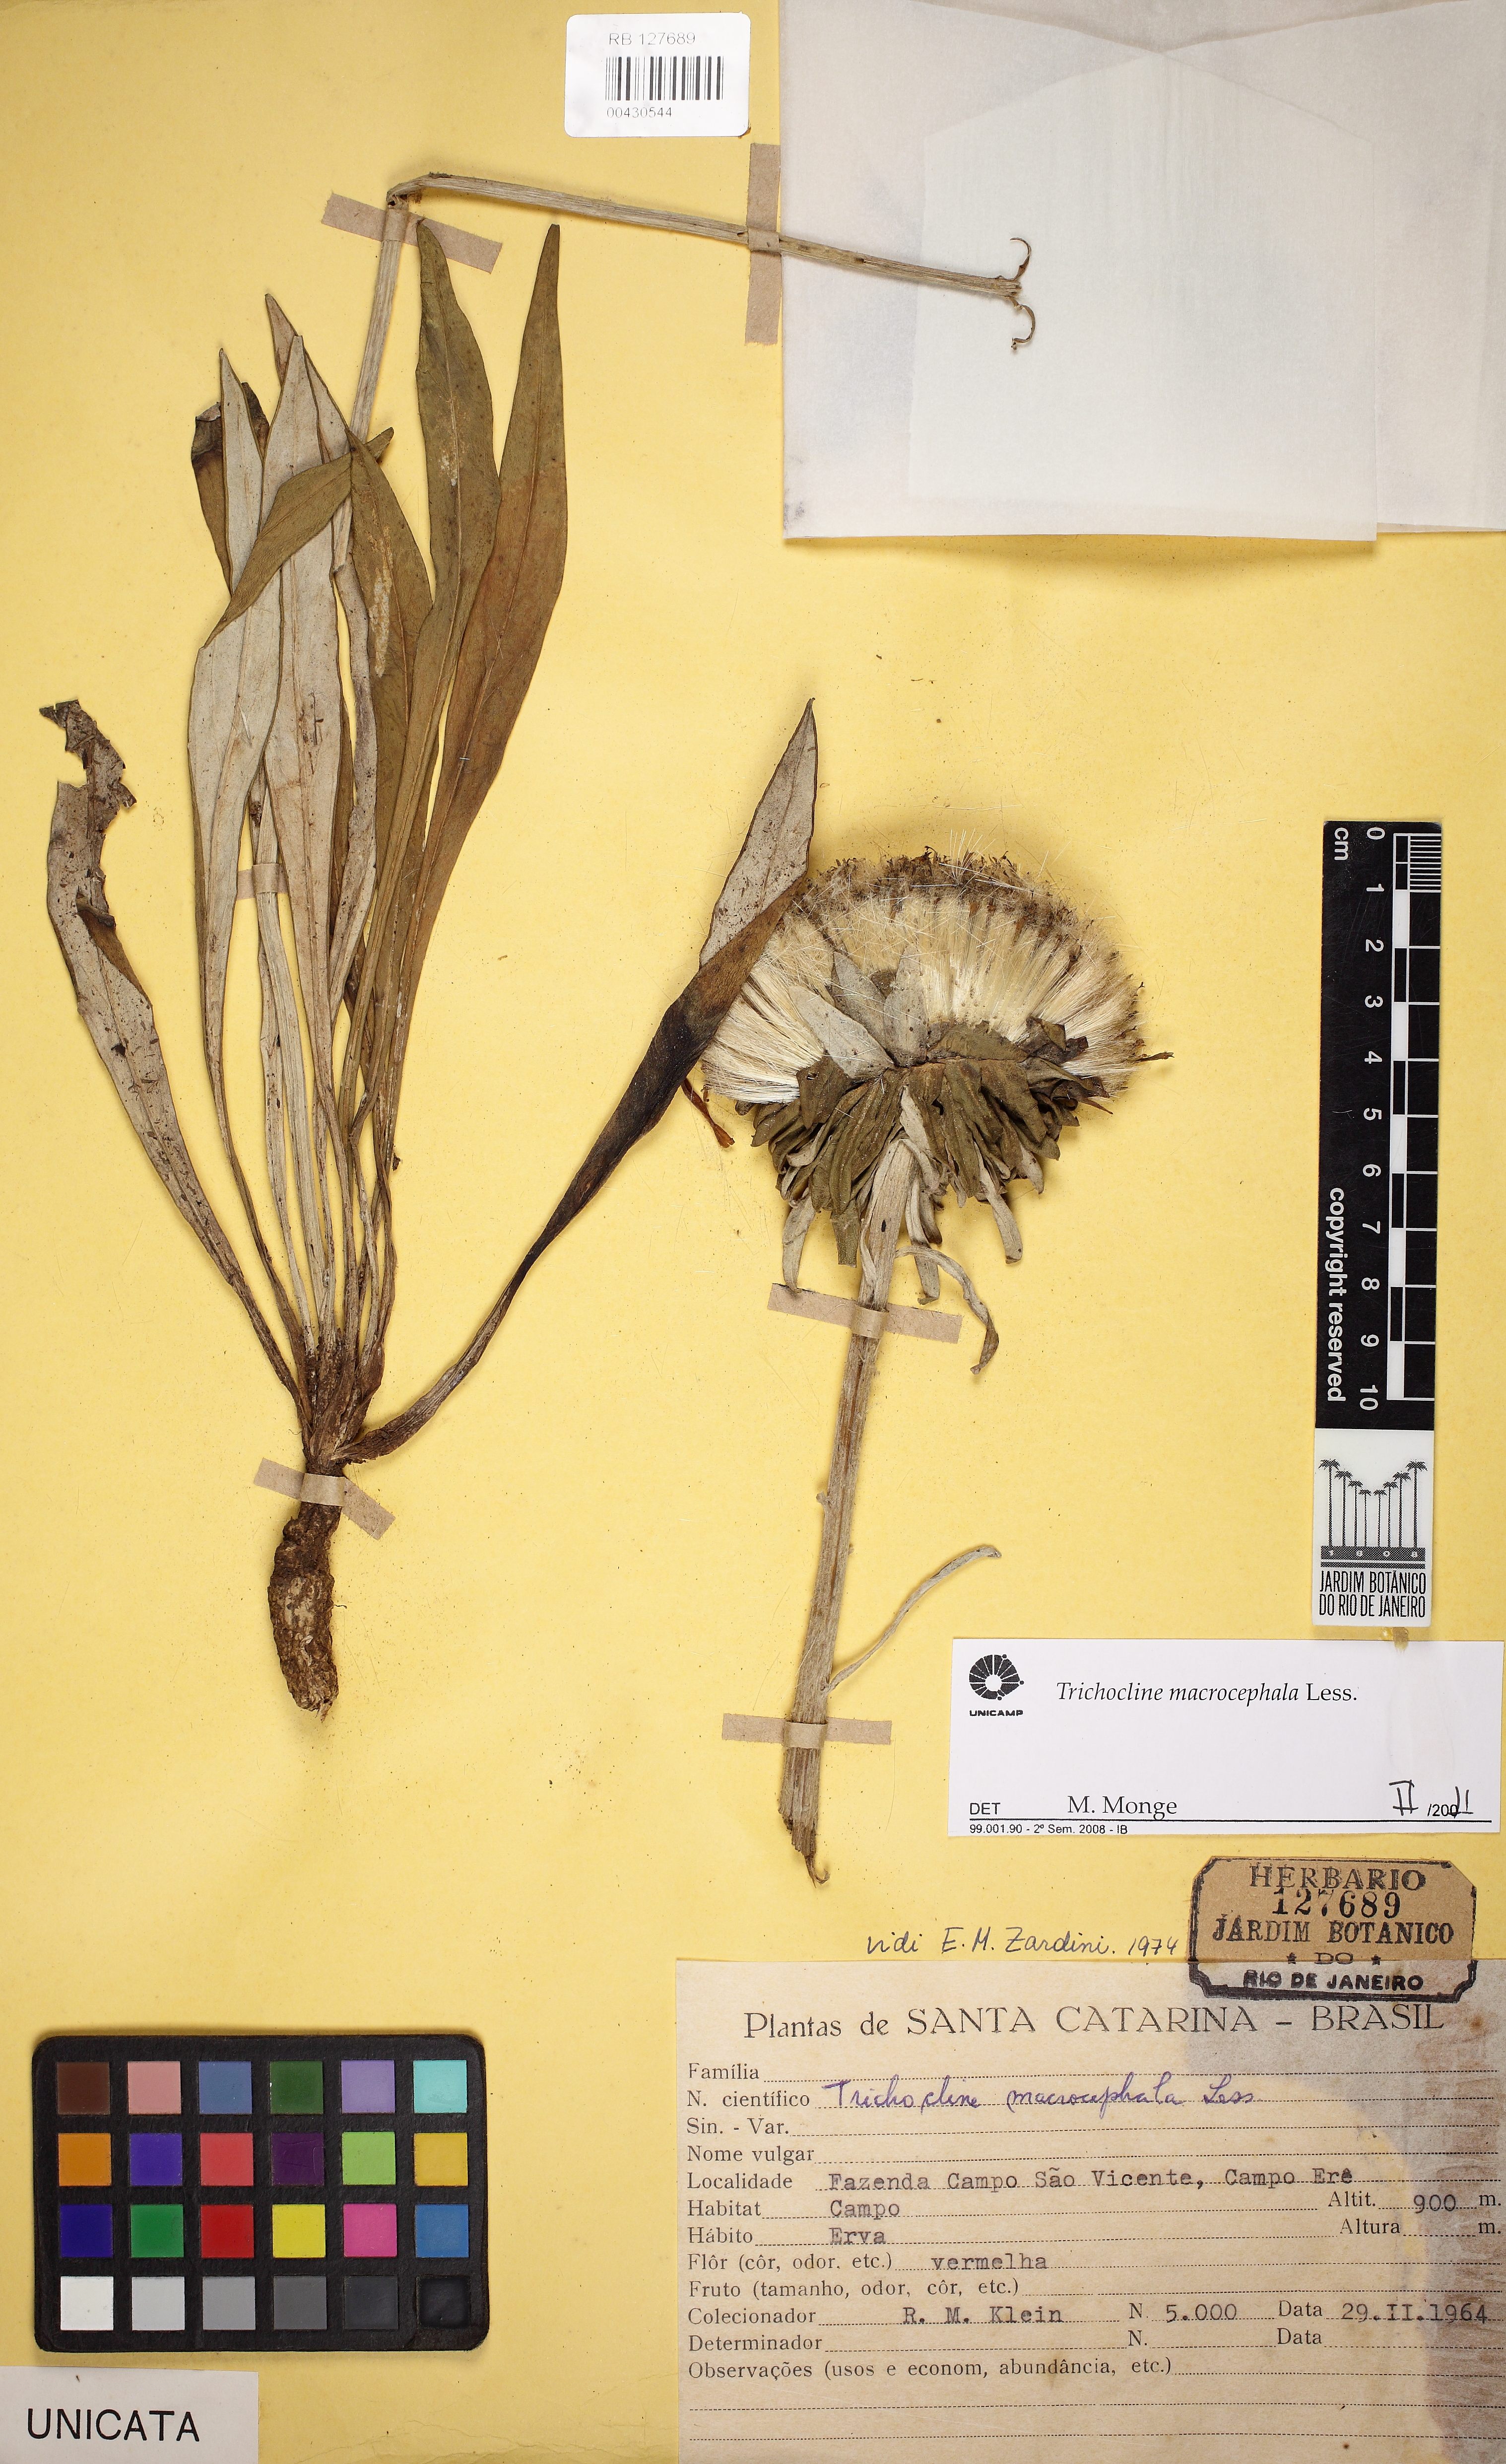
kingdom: Plantae
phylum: Tracheophyta
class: Magnoliopsida
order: Asterales
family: Asteraceae
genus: Trichocline
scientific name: Trichocline macrocephala
